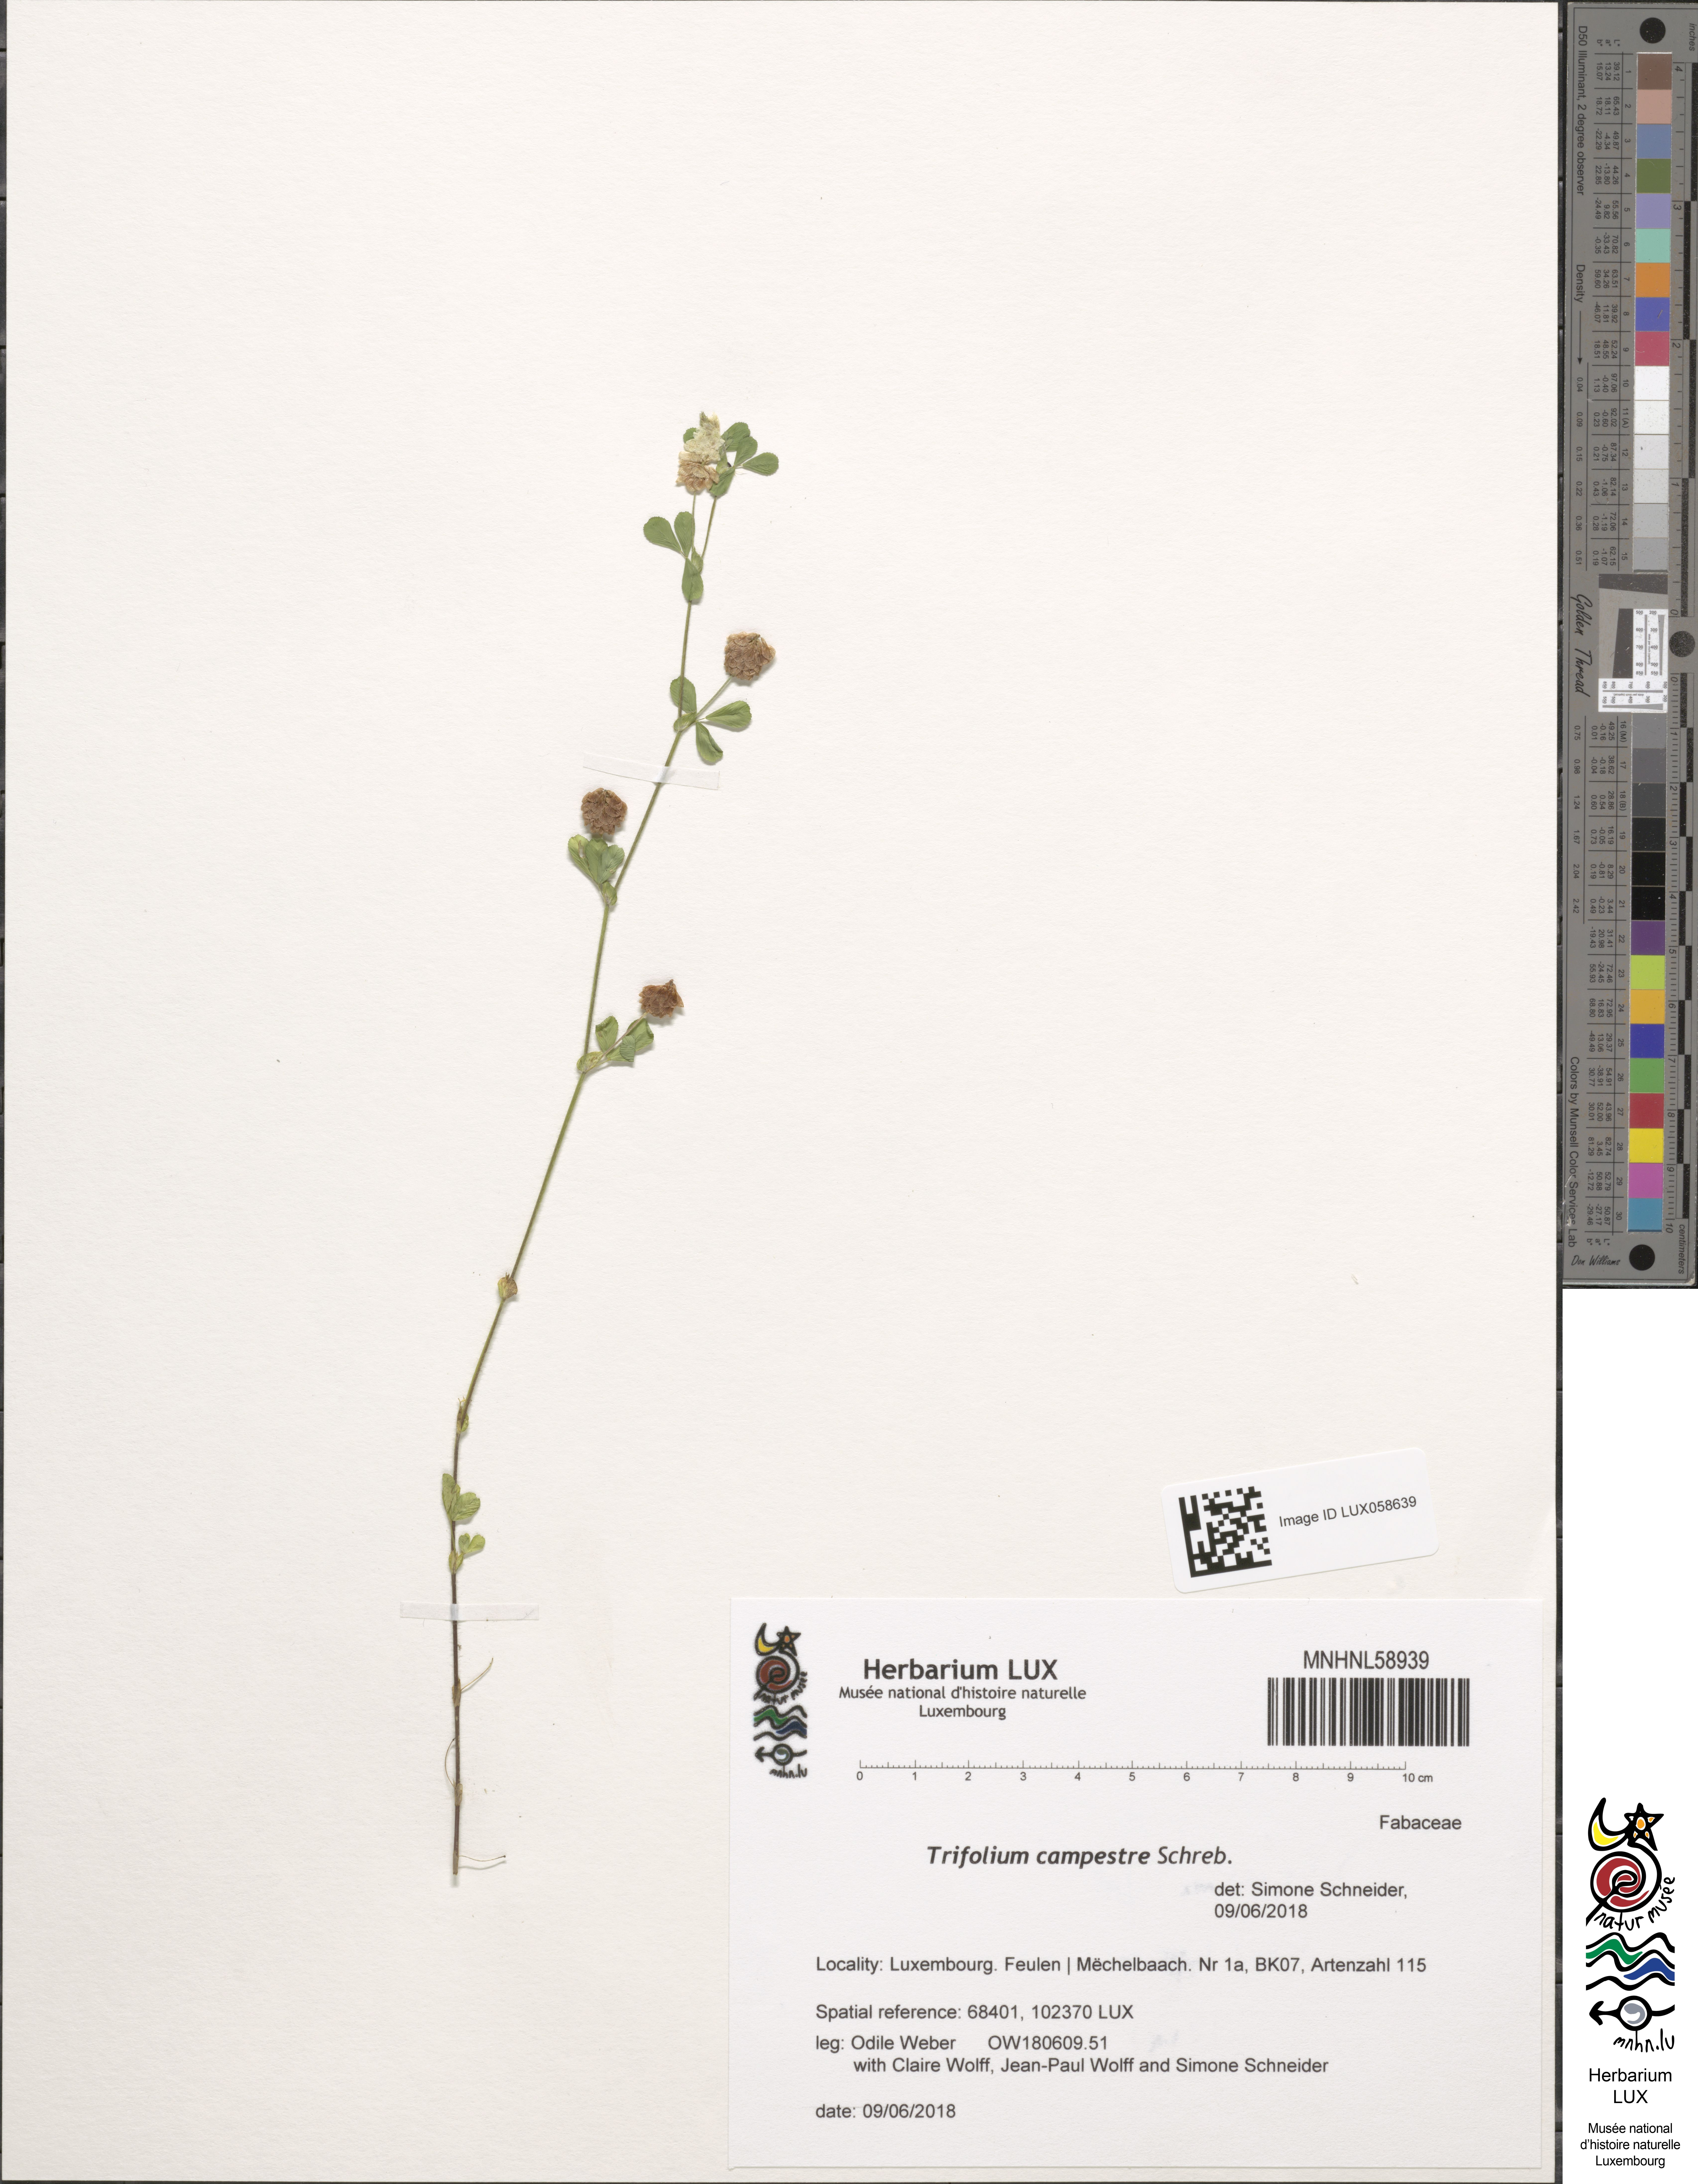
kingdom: Plantae
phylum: Tracheophyta
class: Magnoliopsida
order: Fabales
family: Fabaceae
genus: Trifolium
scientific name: Trifolium campestre
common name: Field clover
